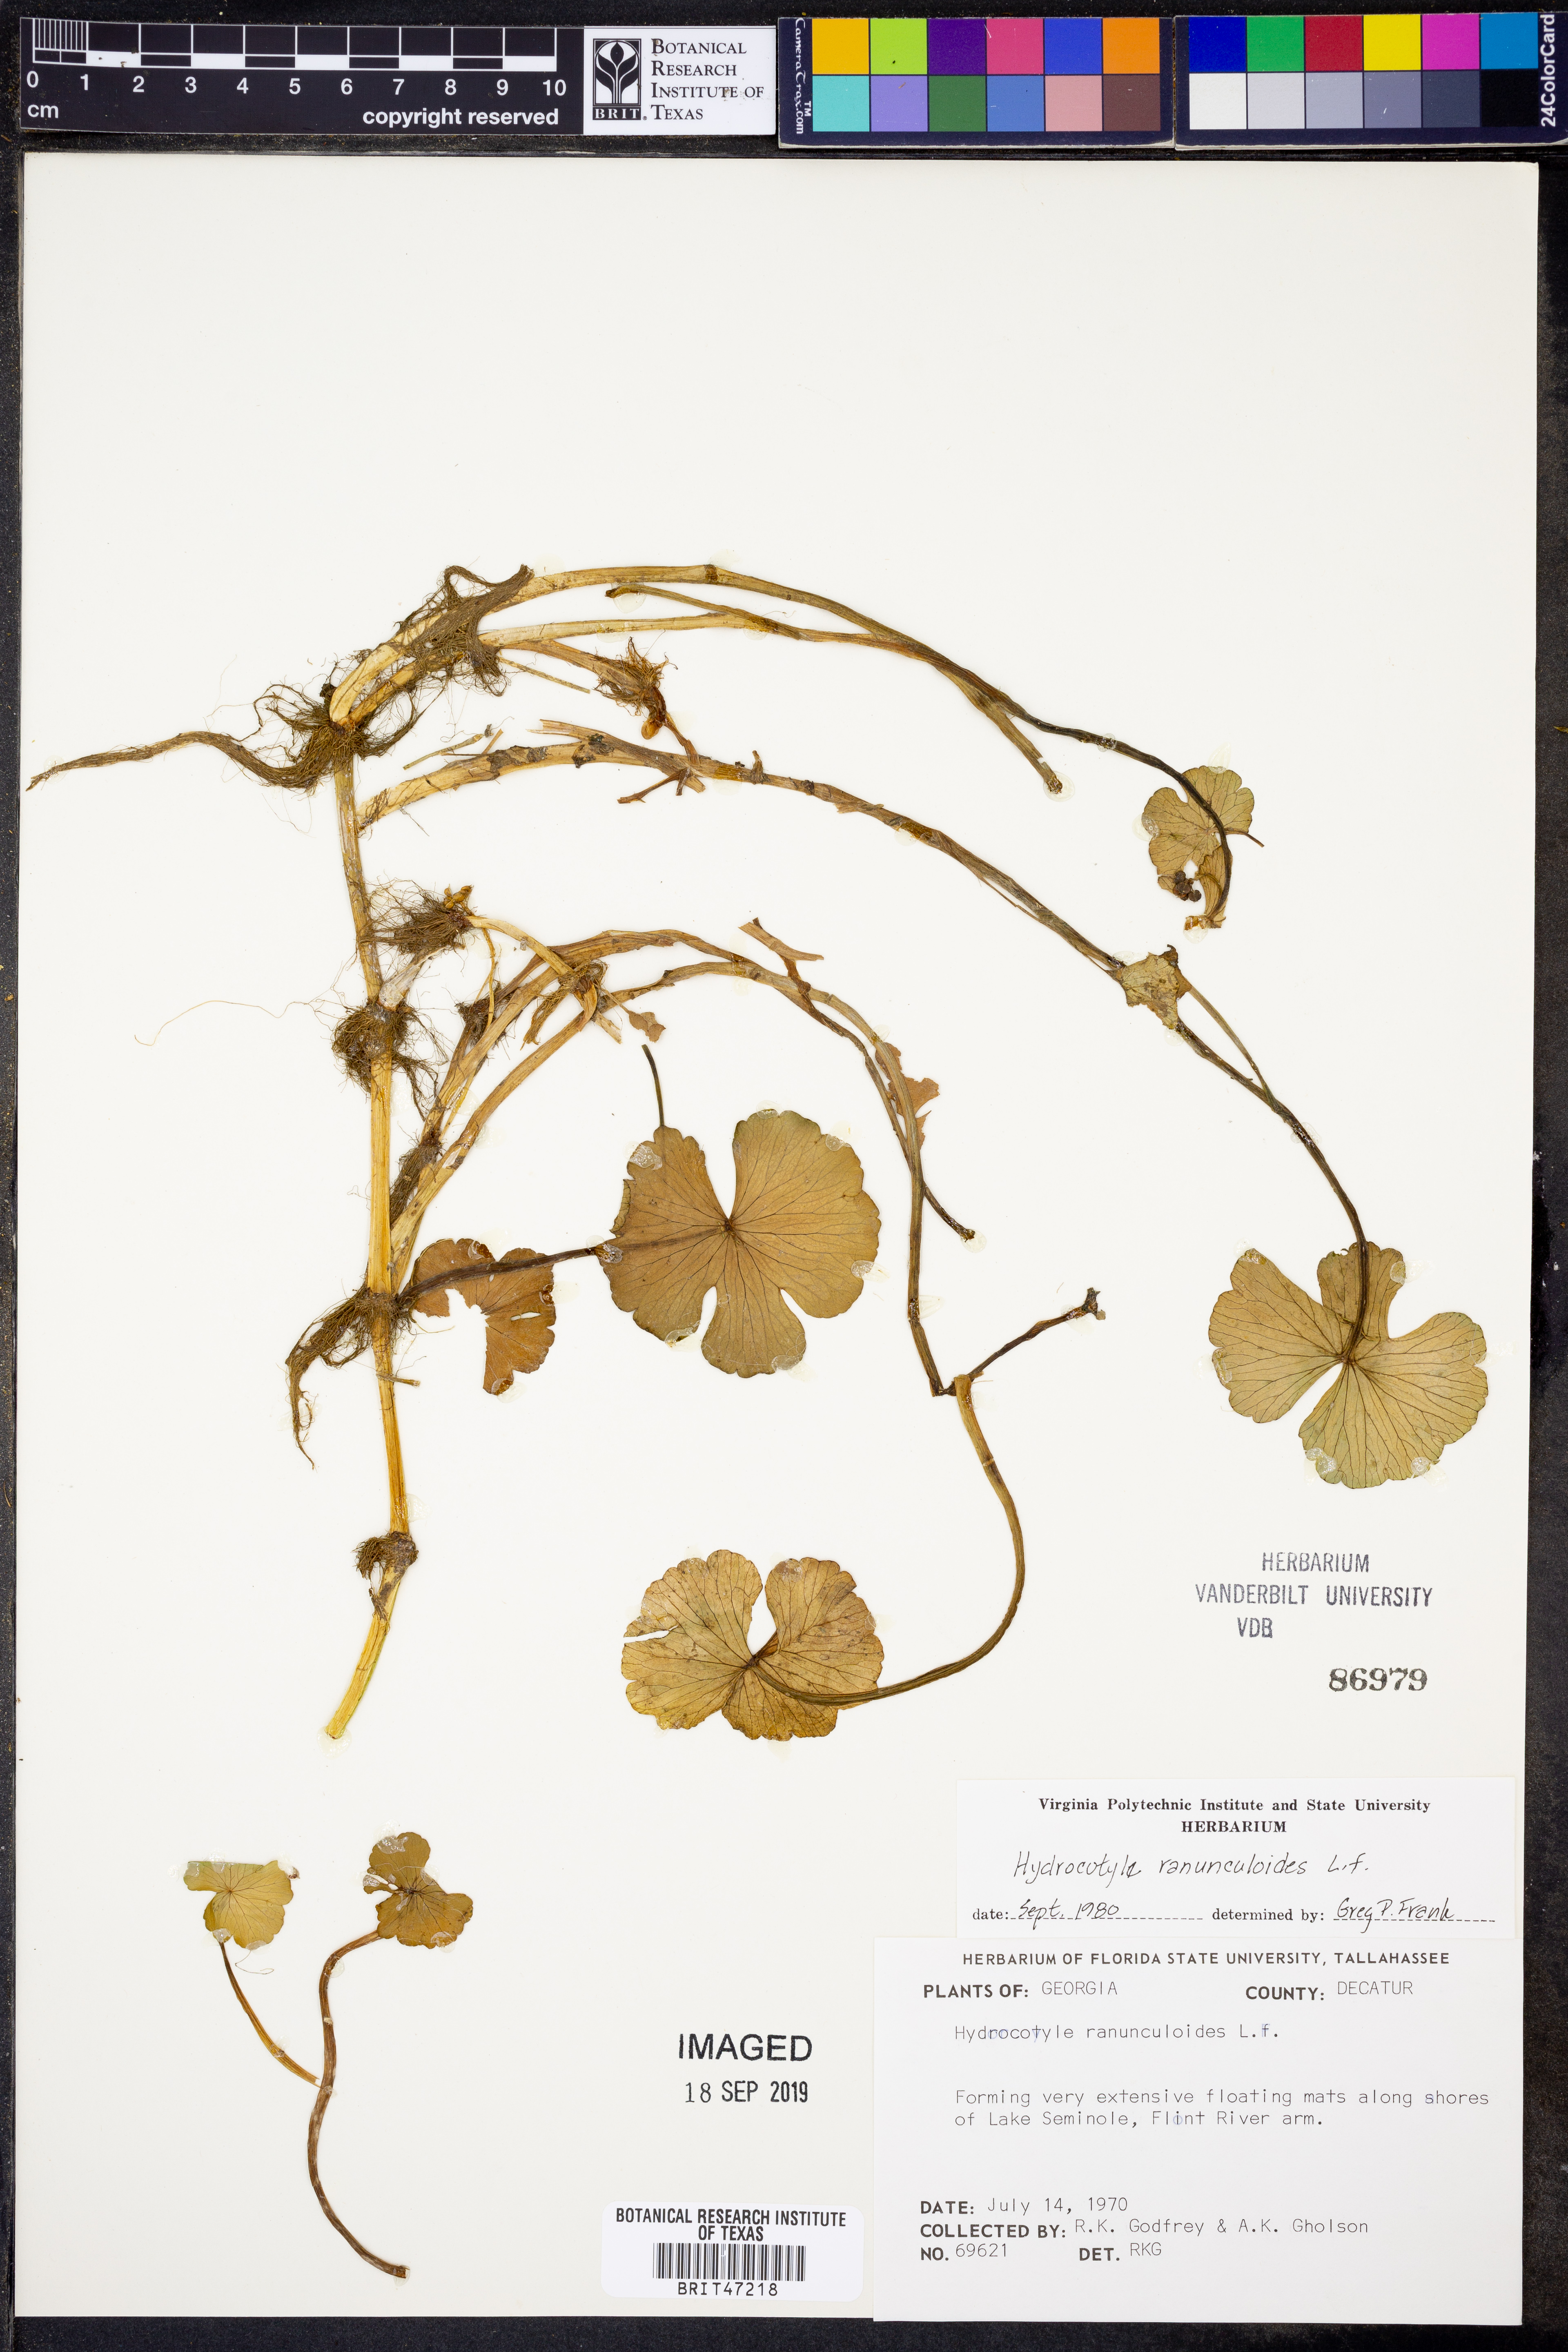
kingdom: Plantae
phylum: Tracheophyta
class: Magnoliopsida
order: Apiales
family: Araliaceae
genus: Hydrocotyle
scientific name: Hydrocotyle ranunculoides
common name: Floating pennywort
